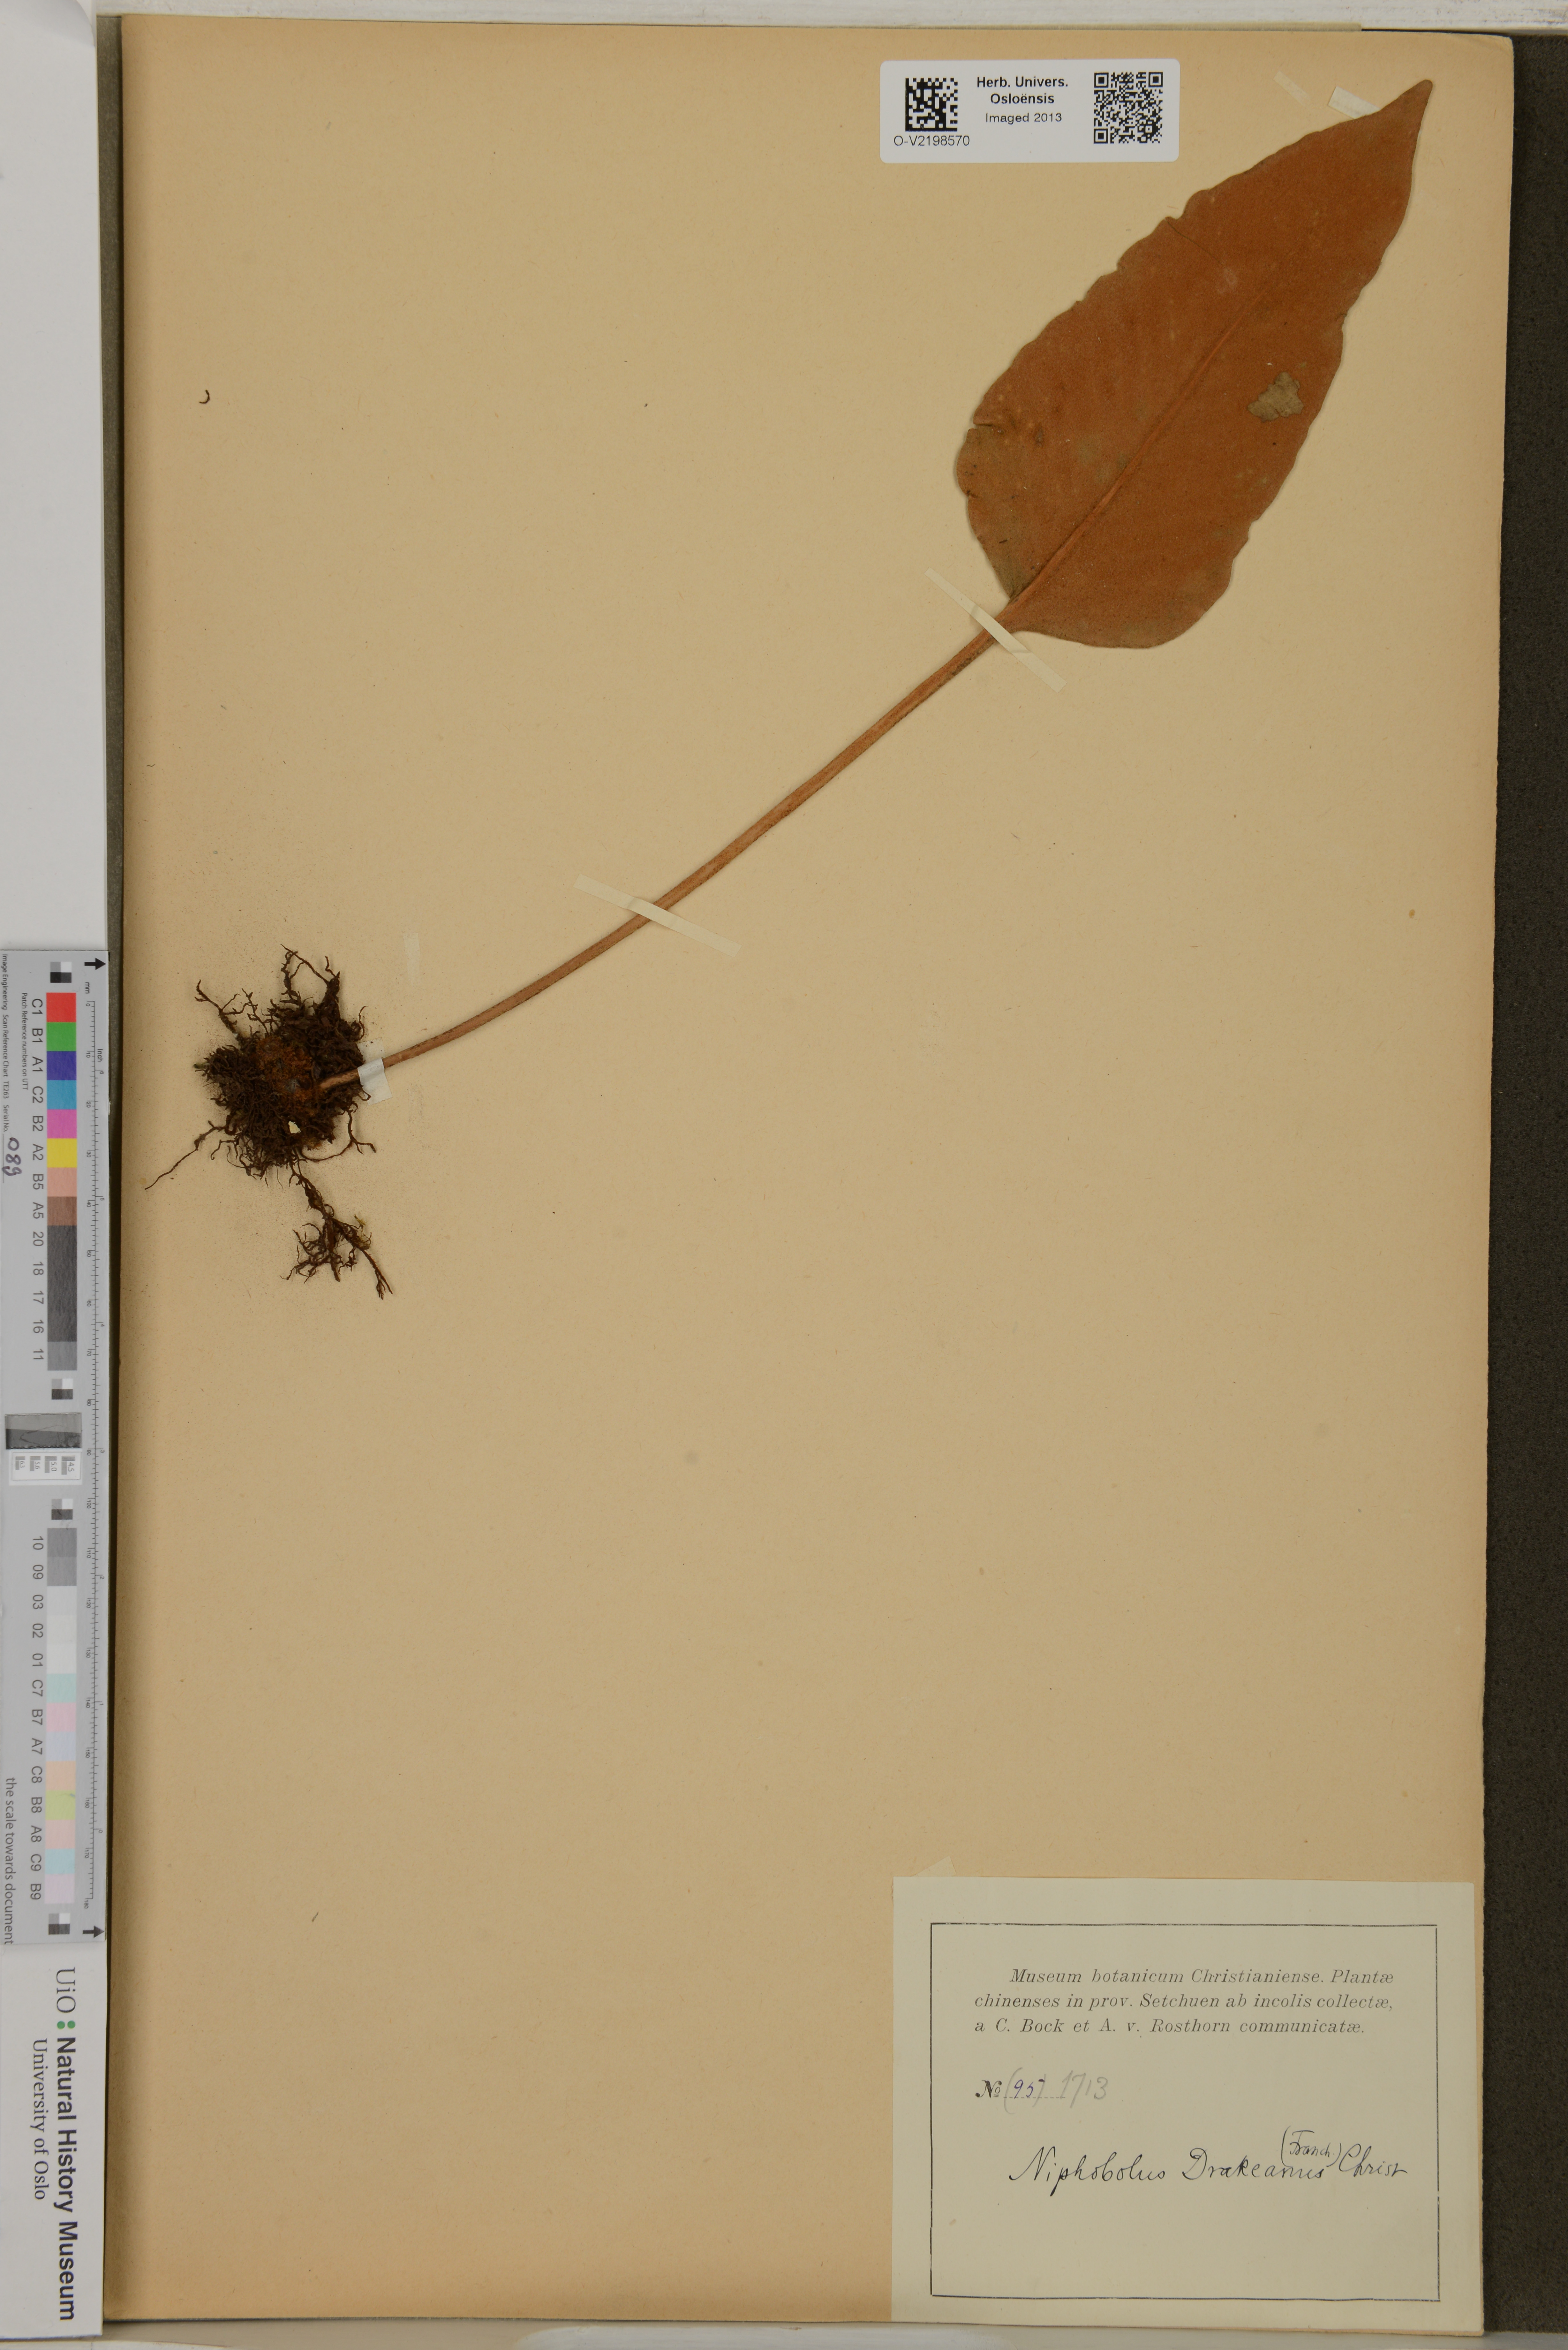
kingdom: Plantae
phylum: Tracheophyta
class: Polypodiopsida
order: Polypodiales
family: Polypodiaceae
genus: Pyrrosia
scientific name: Pyrrosia drakeana
